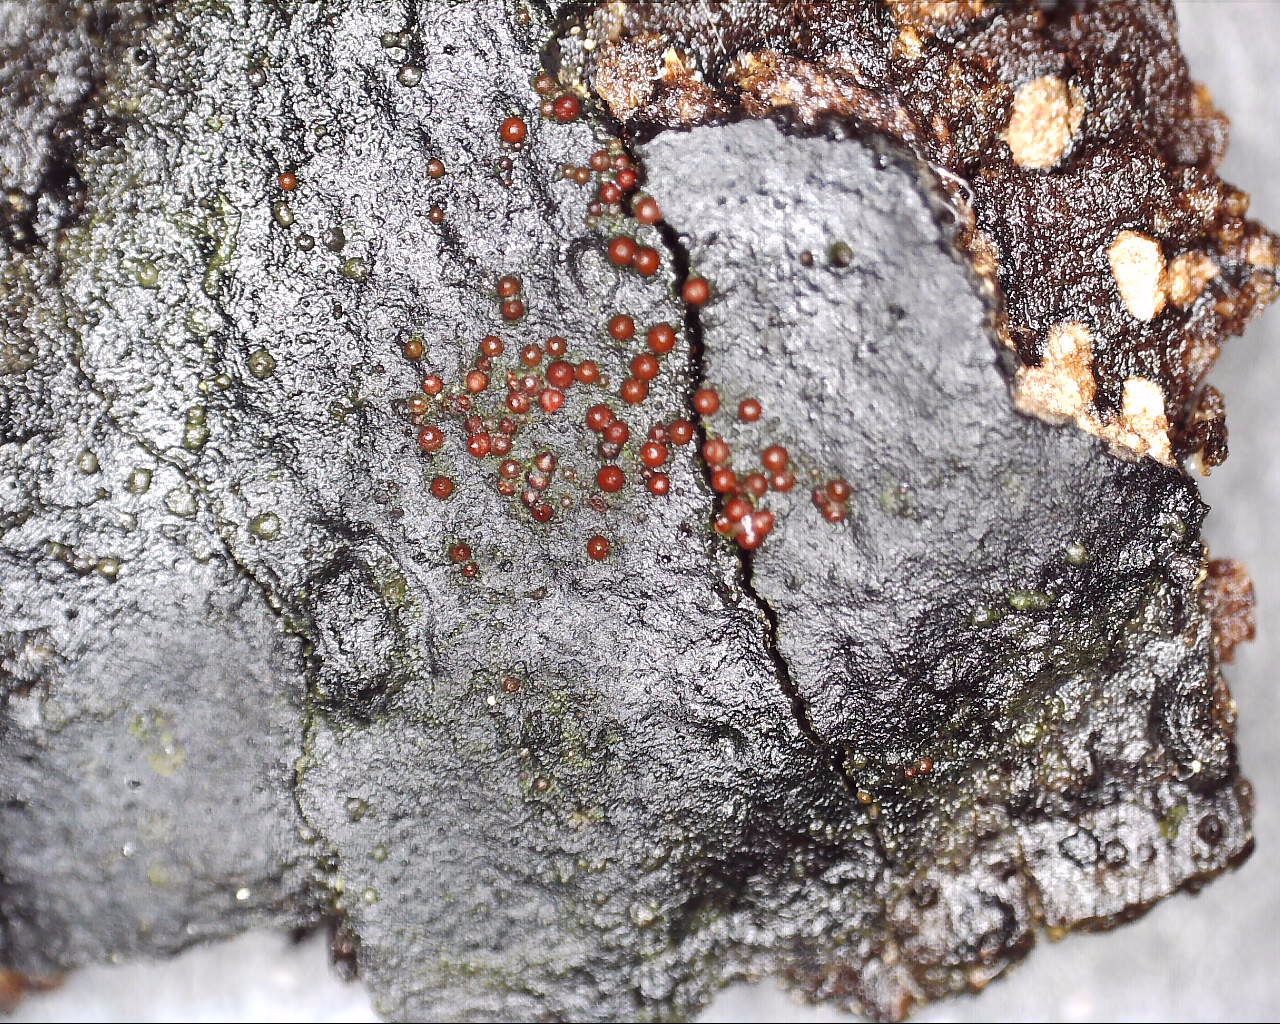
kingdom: Fungi
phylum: Ascomycota
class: Sordariomycetes
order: Hypocreales
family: Nectriaceae
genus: Dialonectria
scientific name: Dialonectria episphaeria
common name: kulskorpe-cinnobersvamp
